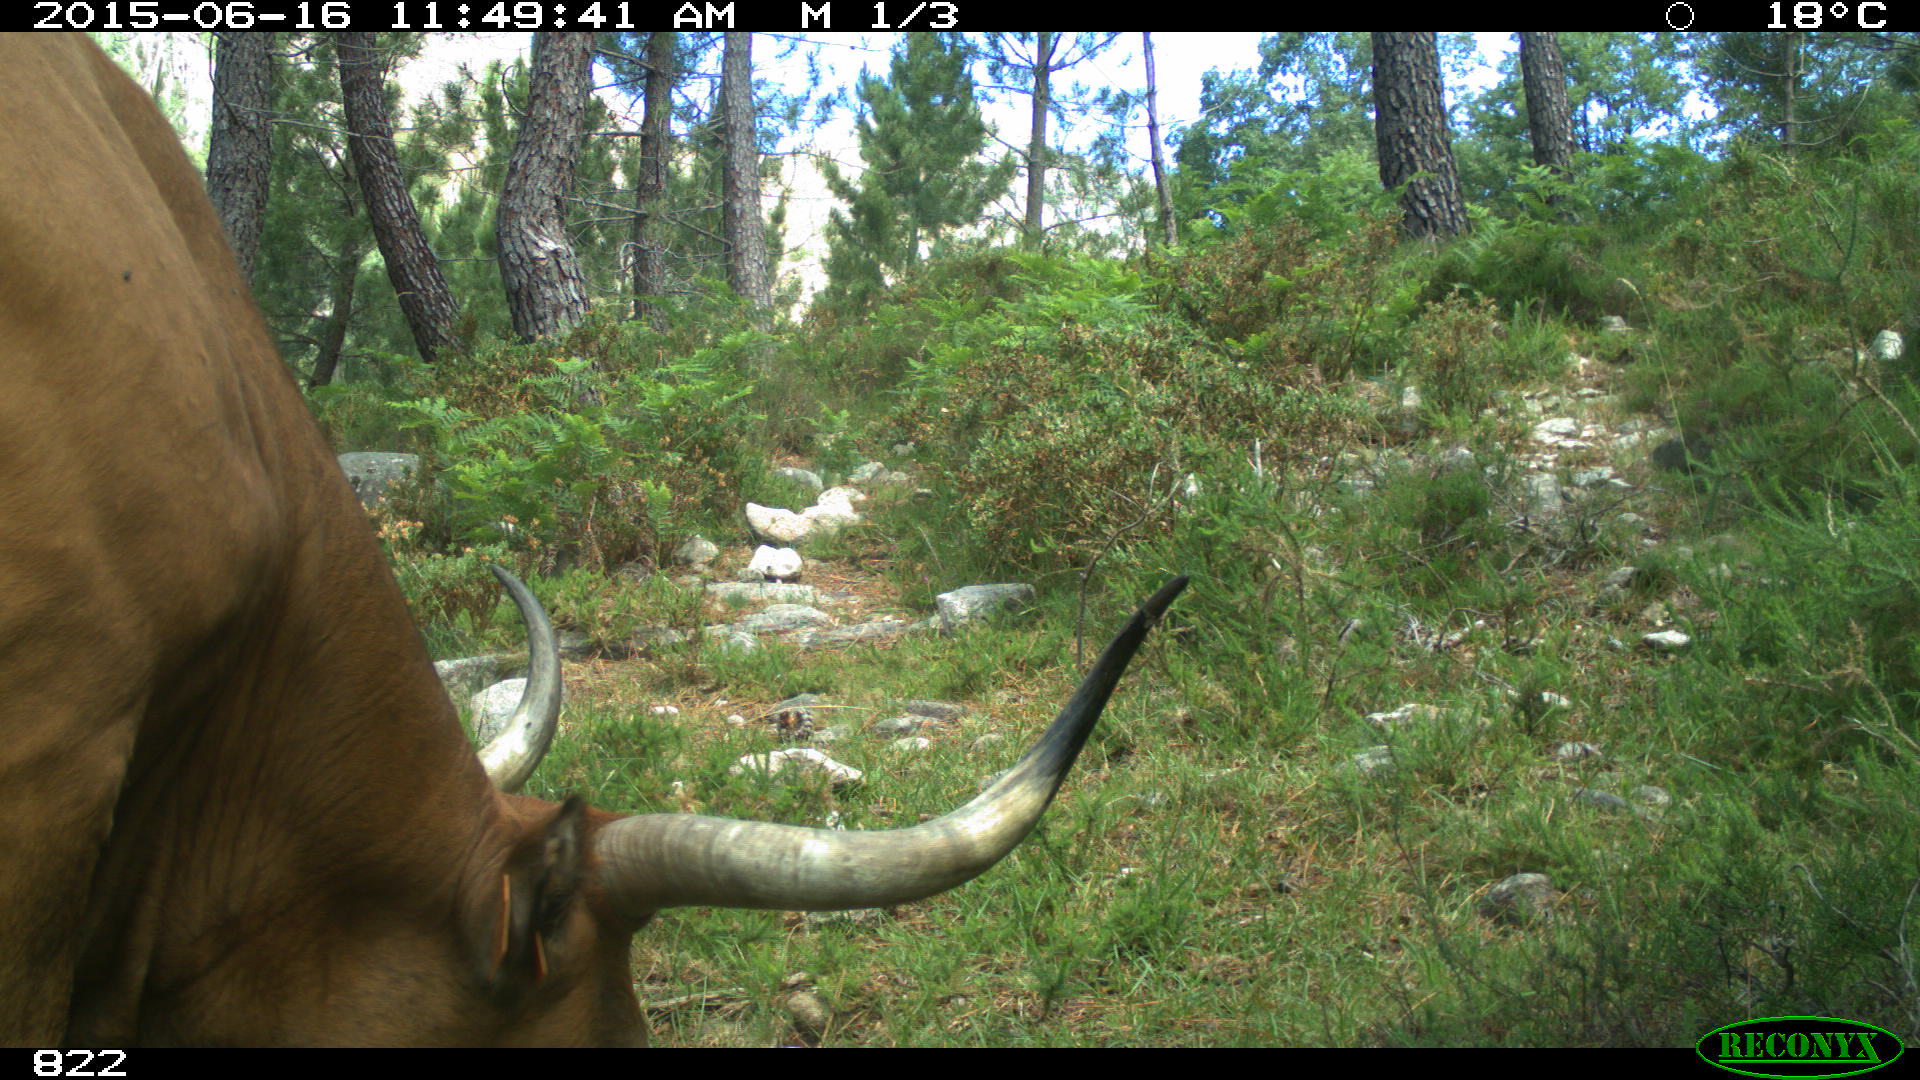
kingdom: Animalia
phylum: Chordata
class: Mammalia
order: Artiodactyla
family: Bovidae
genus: Bos
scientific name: Bos taurus
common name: Domesticated cattle
